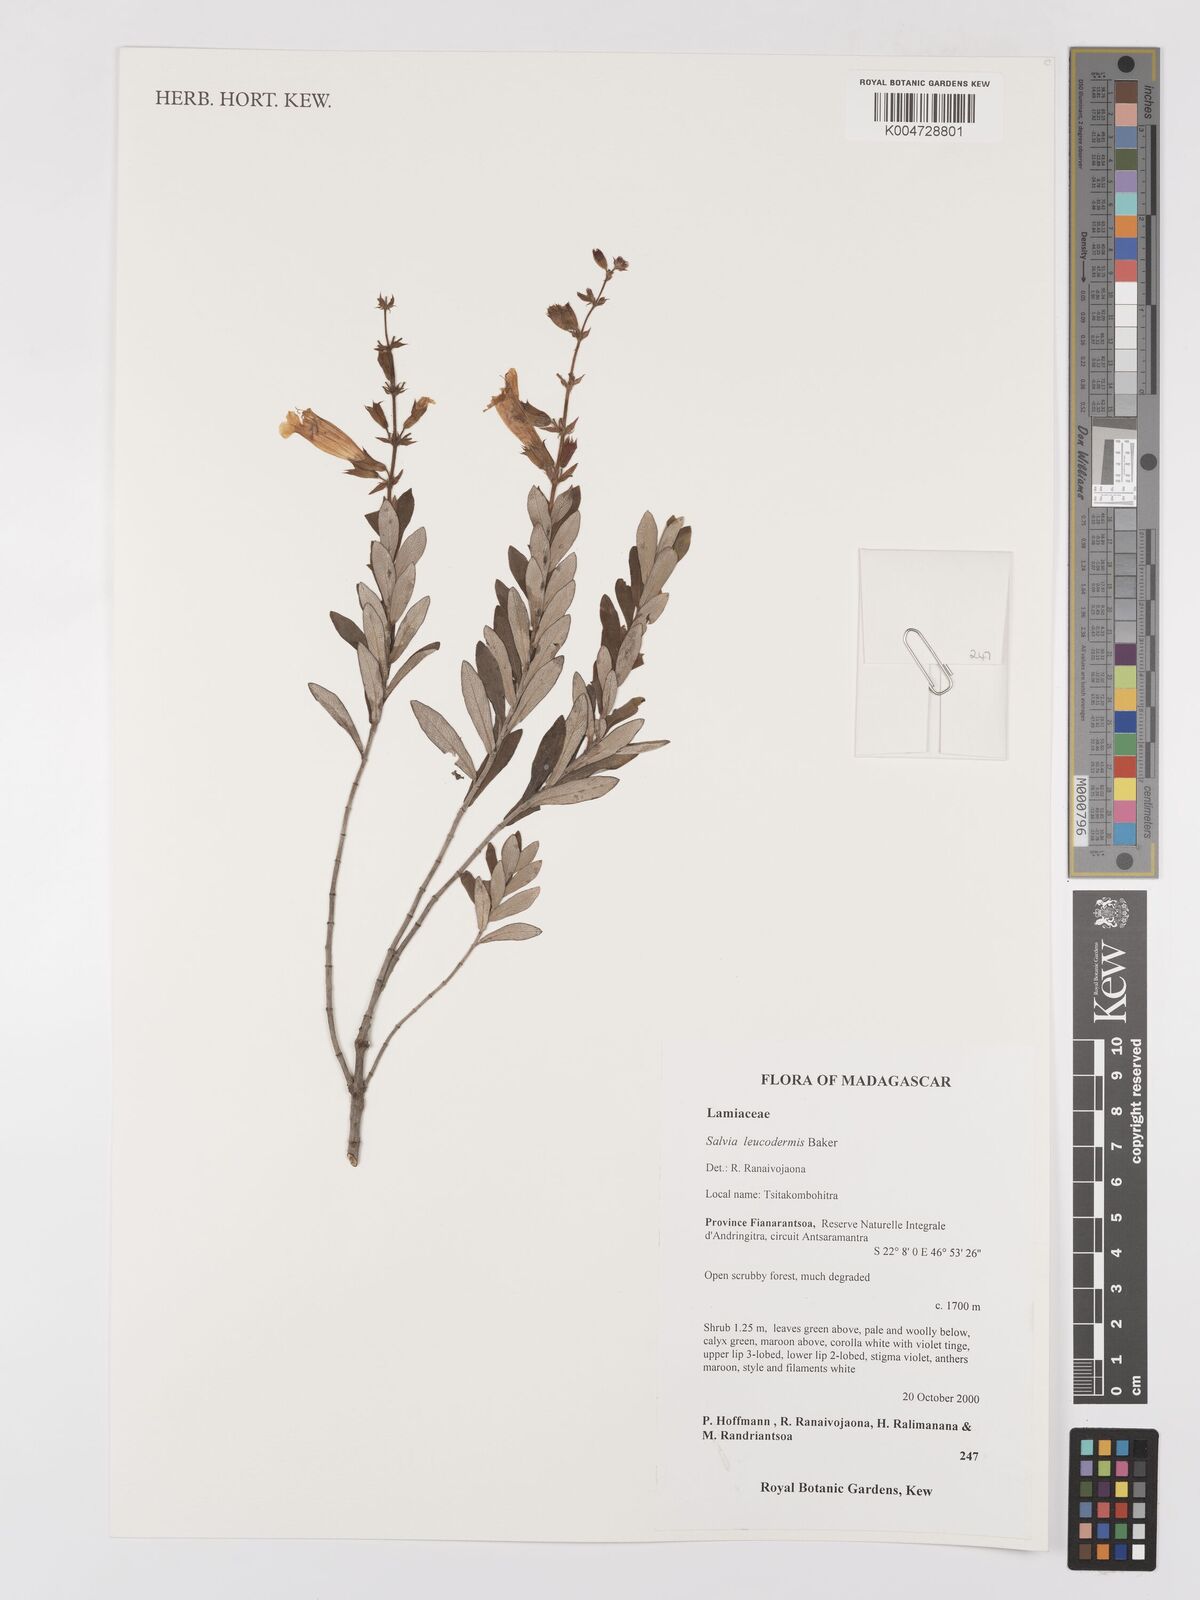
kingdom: Plantae
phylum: Tracheophyta
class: Magnoliopsida
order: Lamiales
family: Lamiaceae
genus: Salvia
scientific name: Salvia leucodermis
